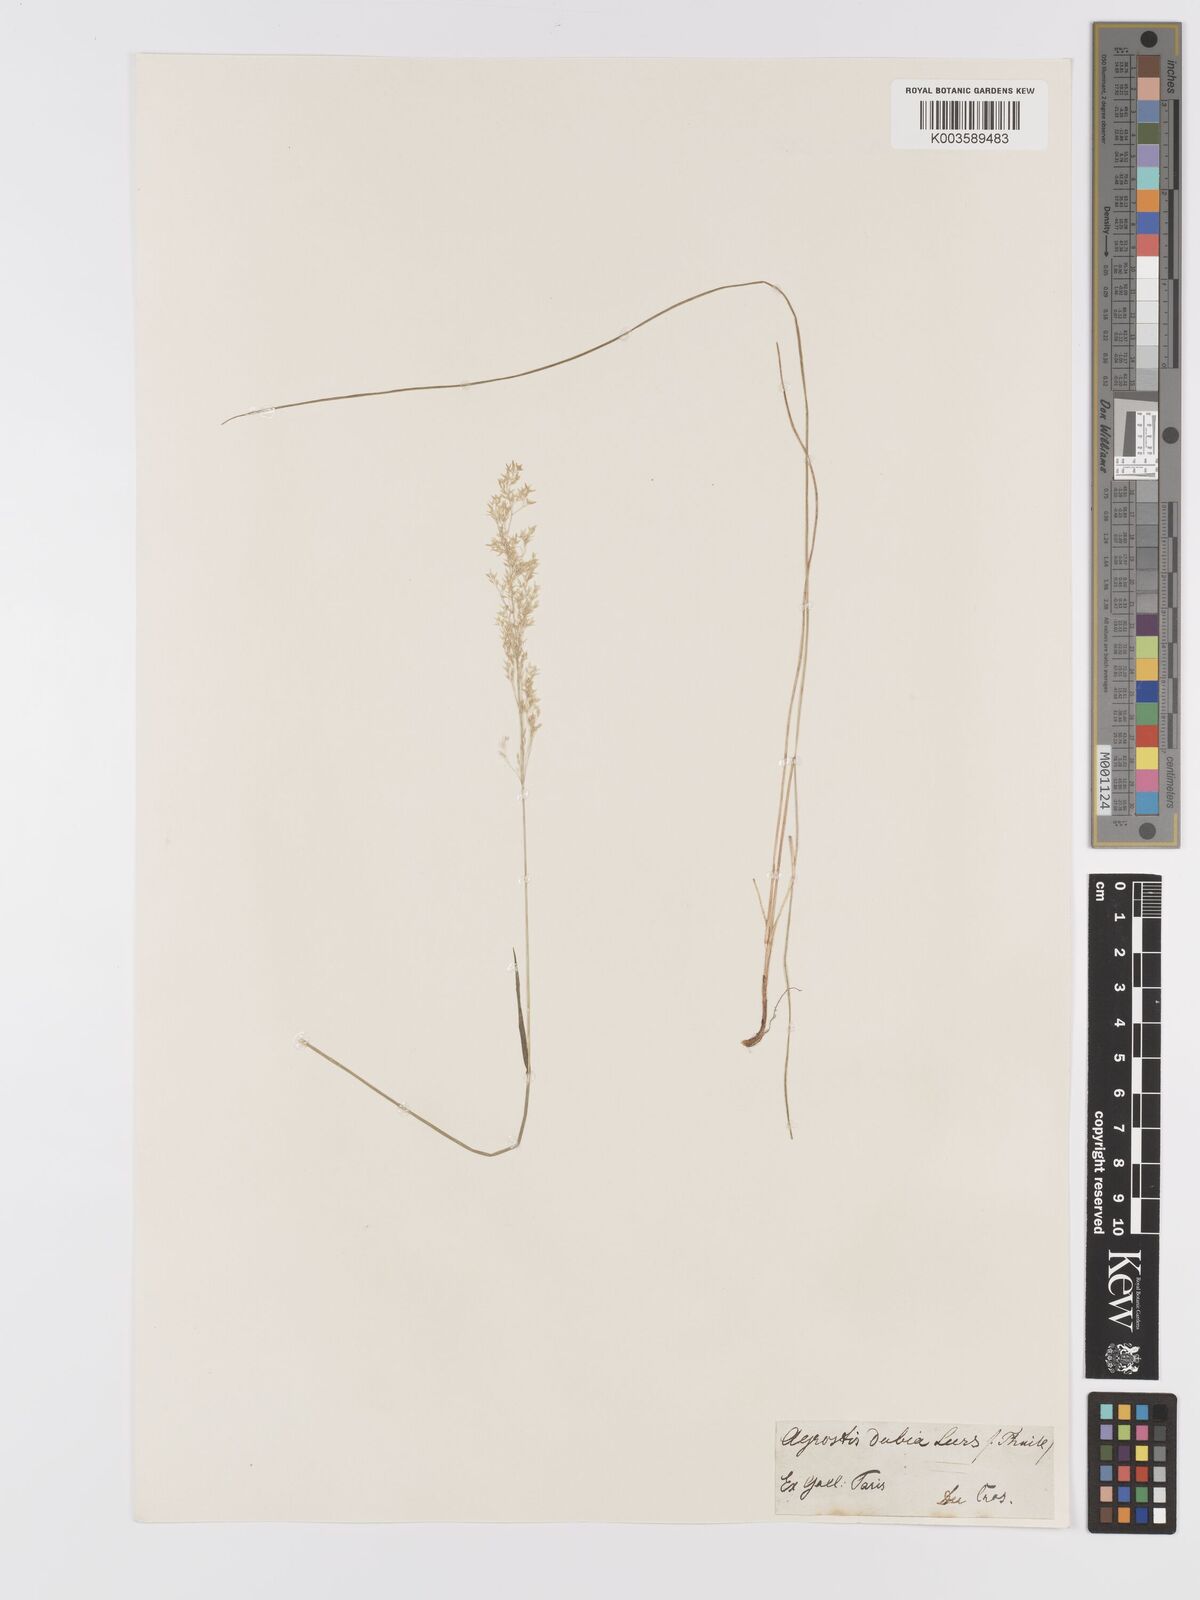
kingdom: Plantae
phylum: Tracheophyta
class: Liliopsida
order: Poales
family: Poaceae
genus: Agrostis
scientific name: Agrostis canina
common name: Velvet bent
